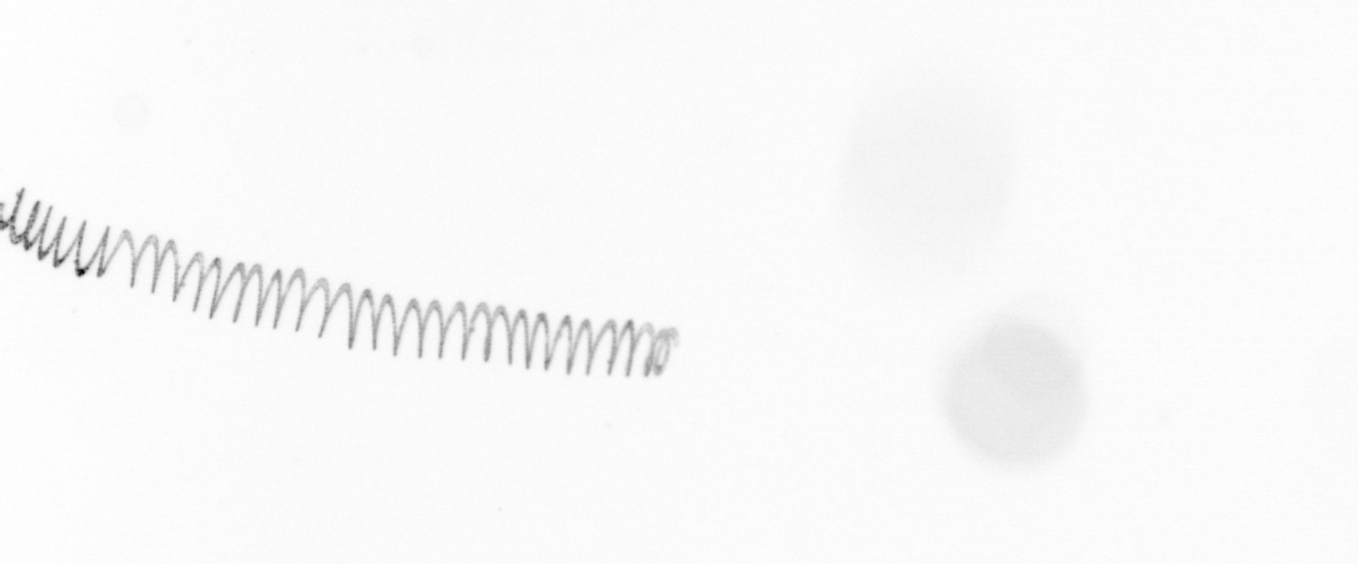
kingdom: Chromista
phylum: Ochrophyta
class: Bacillariophyceae
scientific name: Bacillariophyceae
